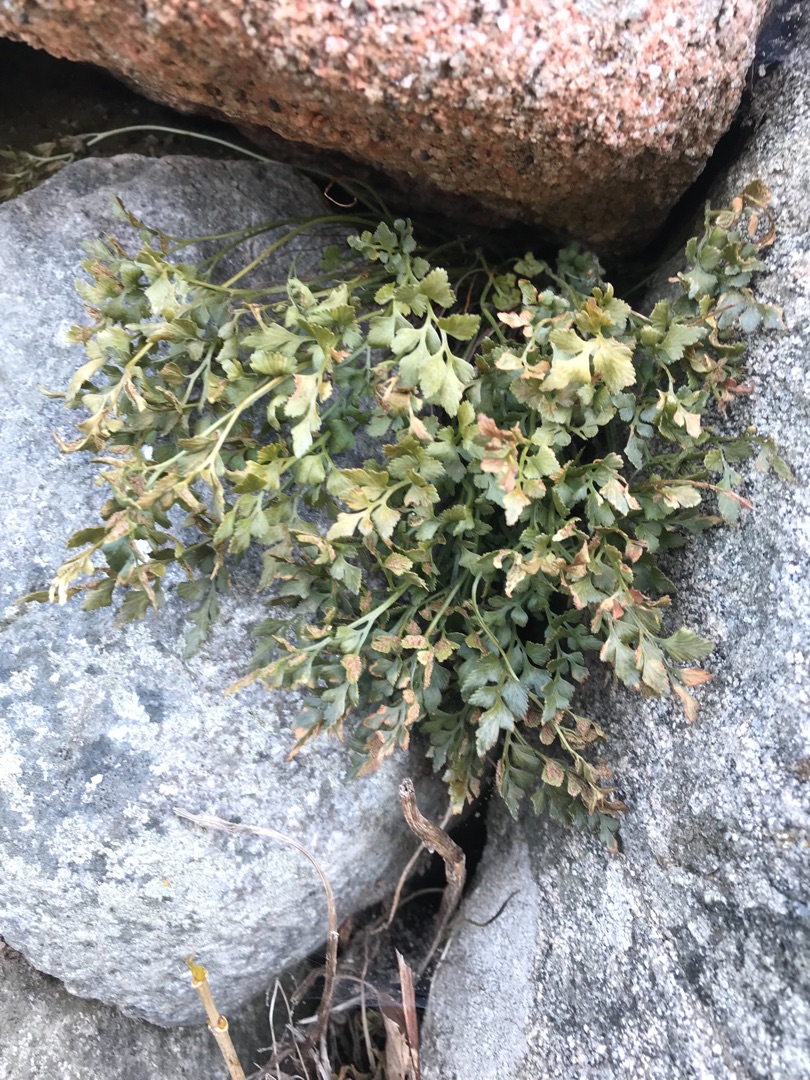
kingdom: Plantae
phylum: Tracheophyta
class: Polypodiopsida
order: Polypodiales
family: Aspleniaceae
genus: Asplenium
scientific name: Asplenium ruta-muraria
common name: Murrude
